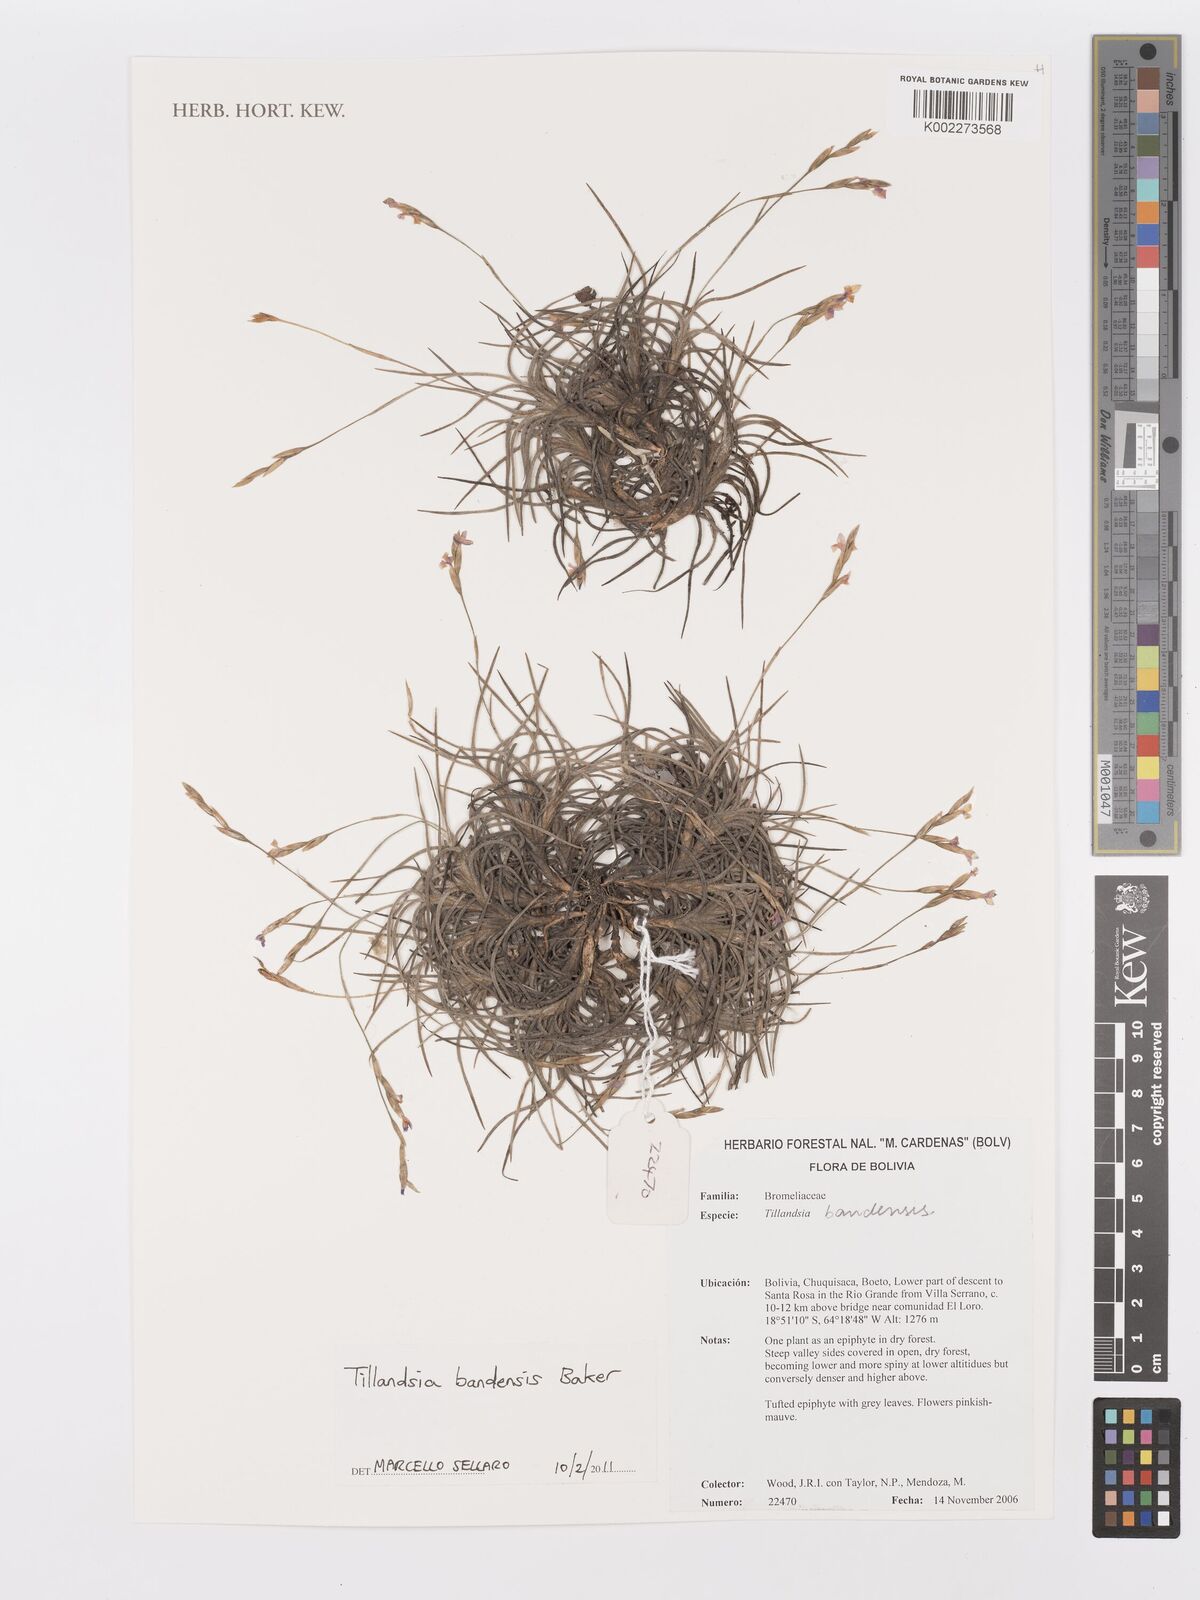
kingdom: Plantae
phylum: Tracheophyta
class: Liliopsida
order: Poales
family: Bromeliaceae
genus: Tillandsia
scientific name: Tillandsia bandensis
